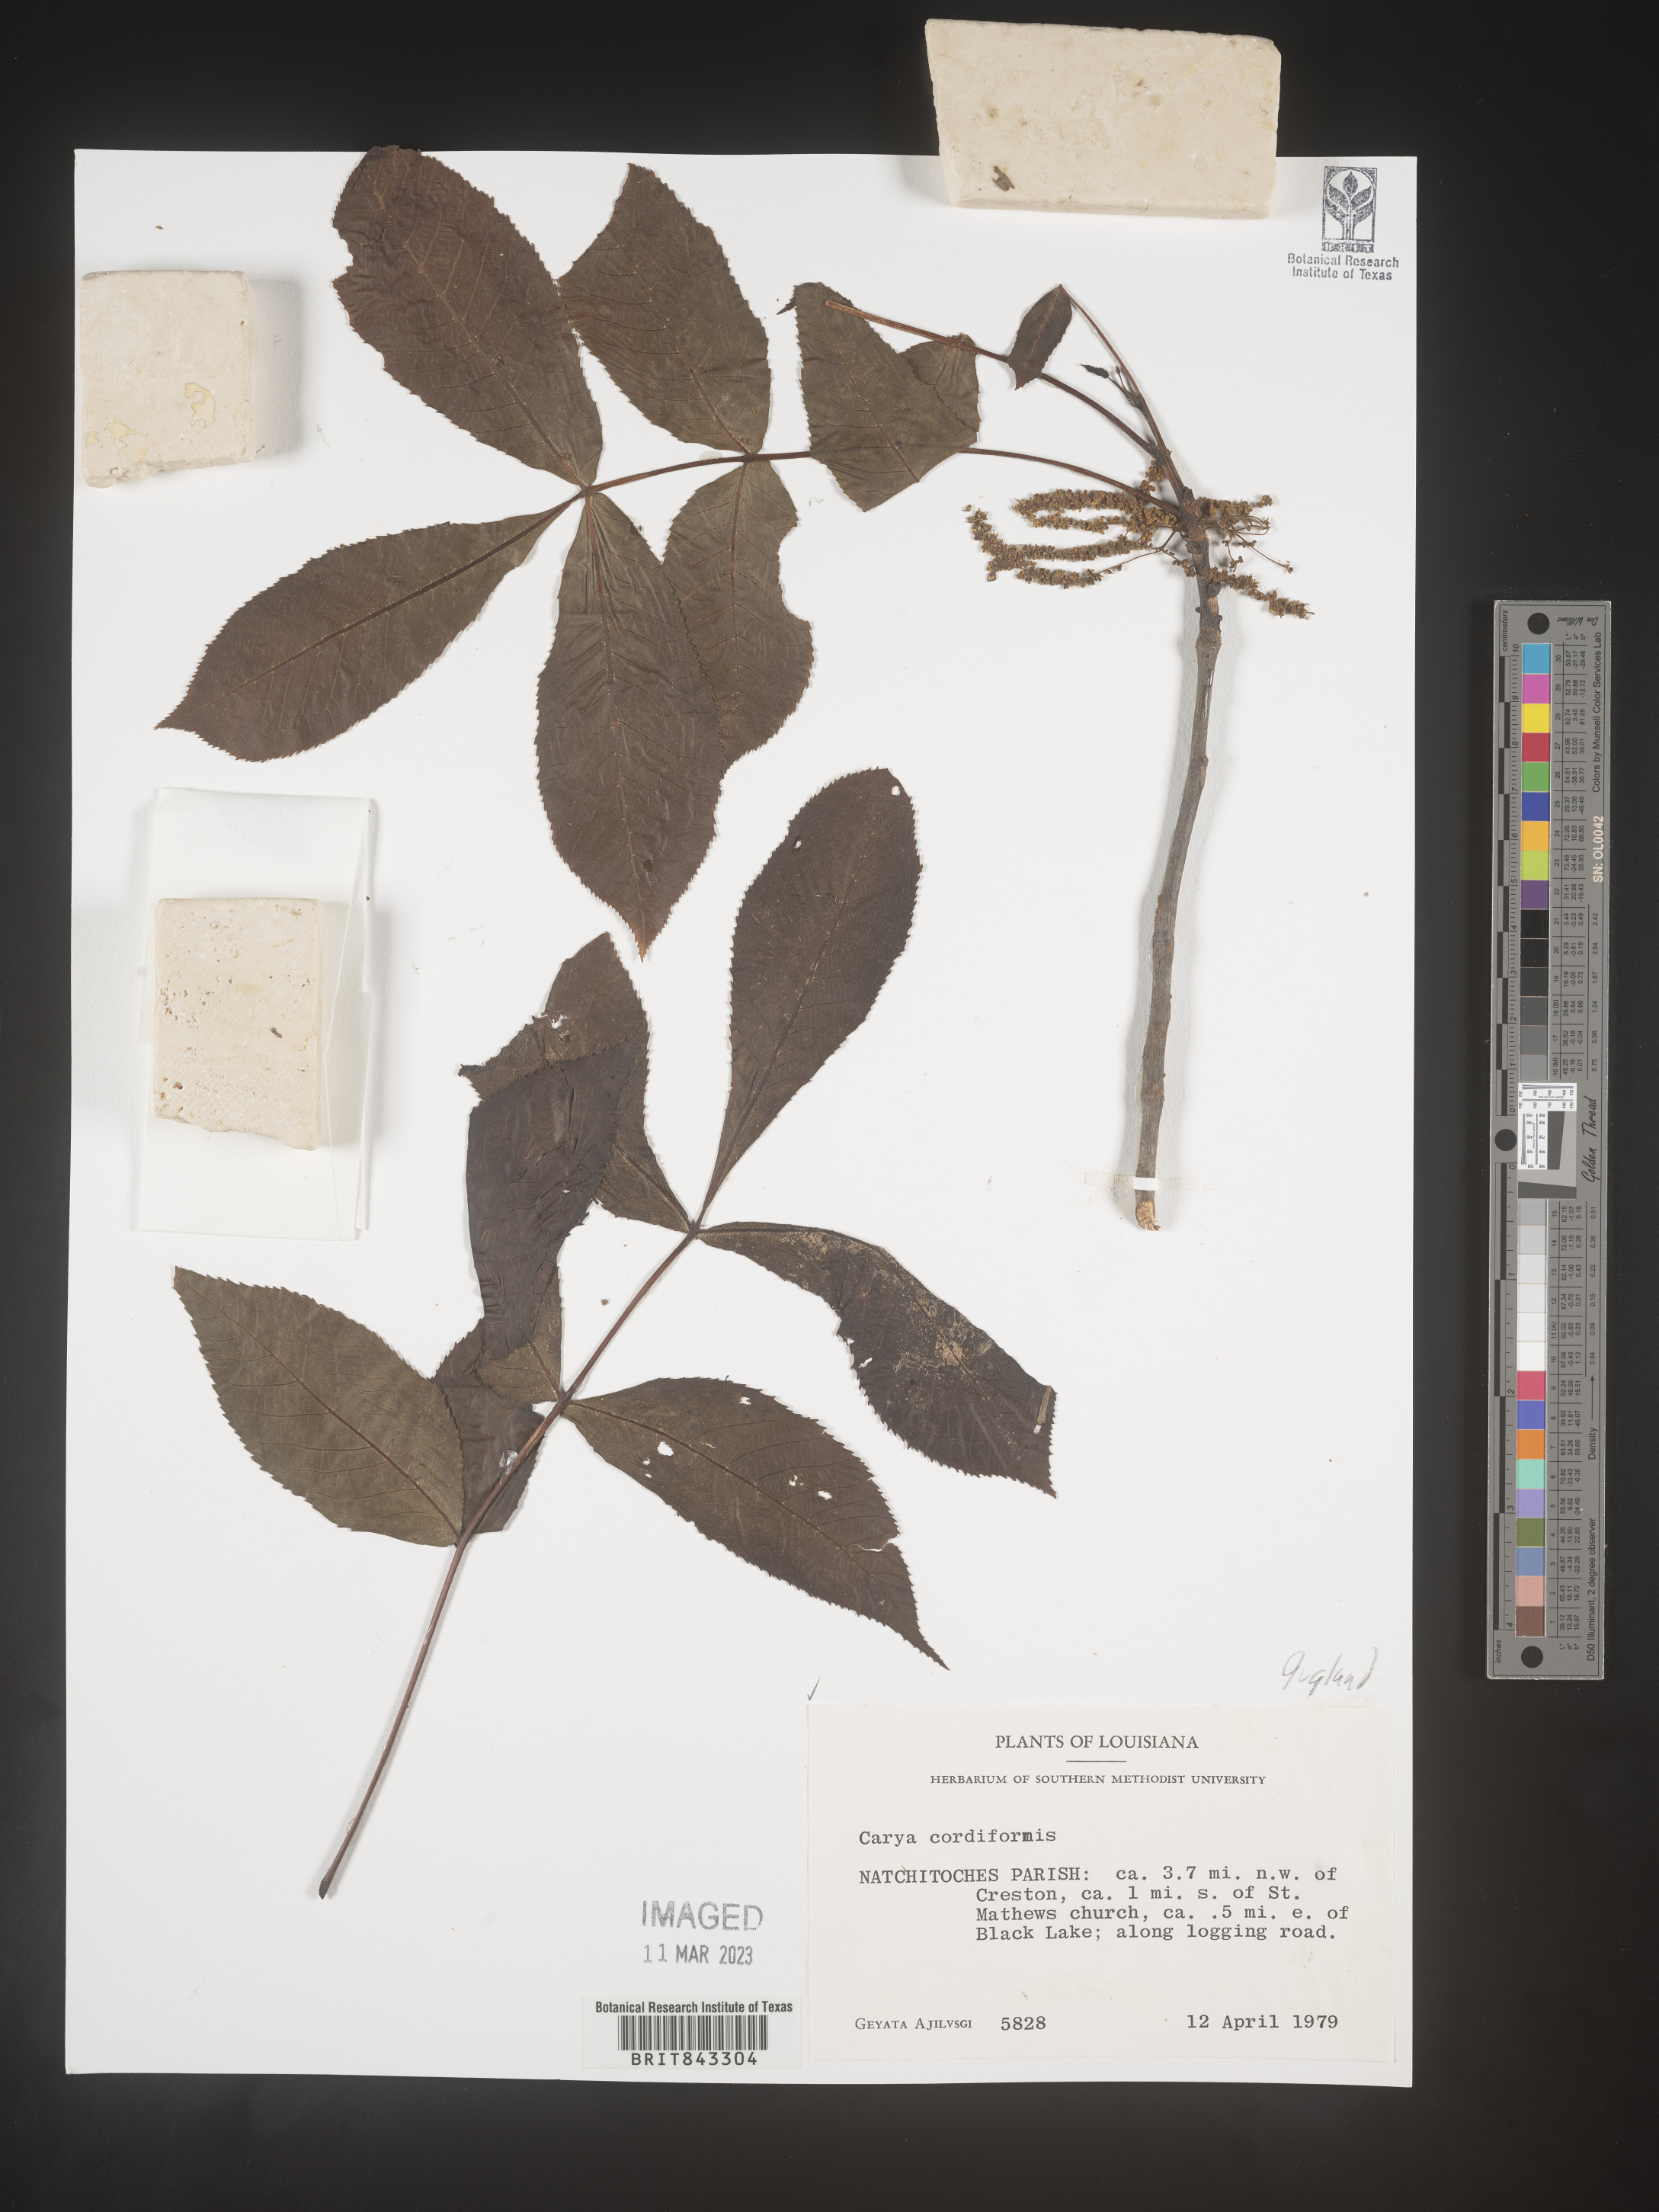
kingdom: Plantae
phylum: Tracheophyta
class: Magnoliopsida
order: Fagales
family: Juglandaceae
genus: Carya
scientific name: Carya cordiformis
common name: Bitternut hickory
